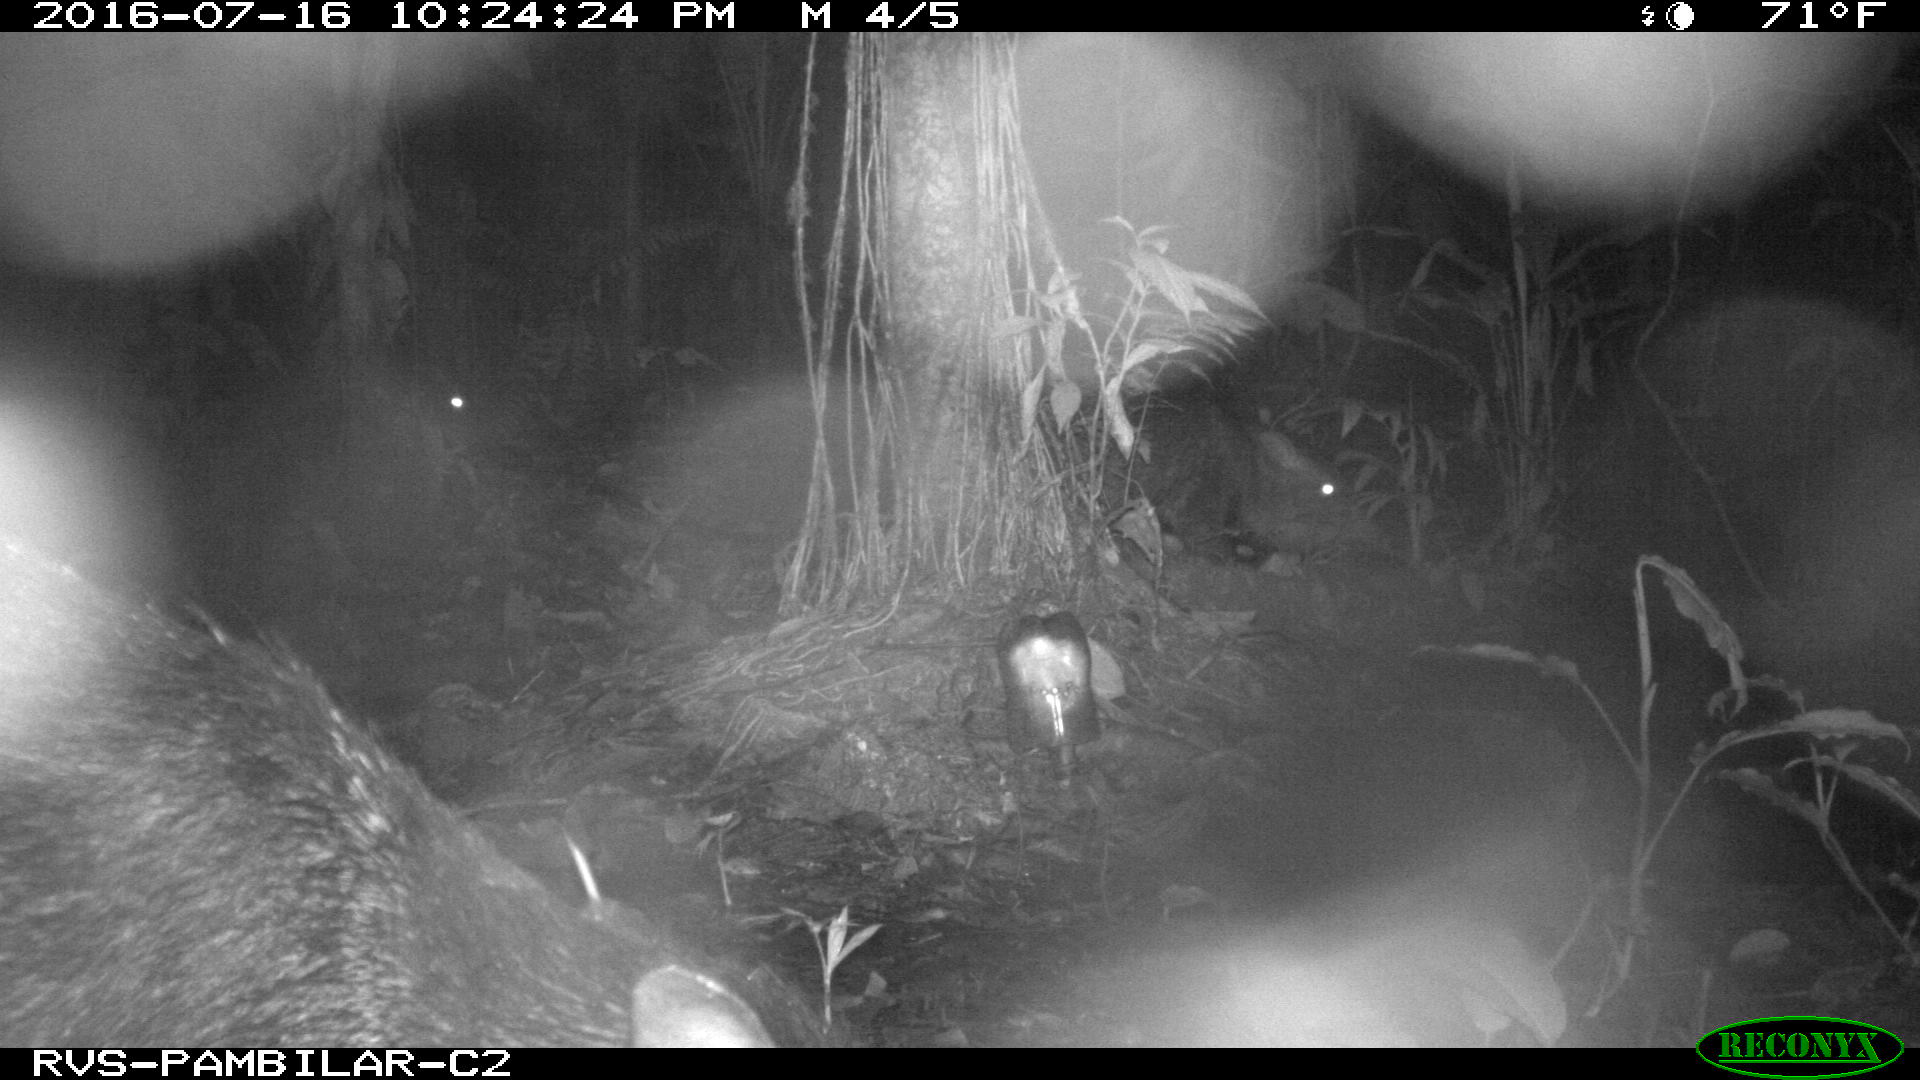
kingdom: Animalia
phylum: Chordata
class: Mammalia
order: Artiodactyla
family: Tayassuidae
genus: Pecari
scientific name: Pecari tajacu
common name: Collared peccary
